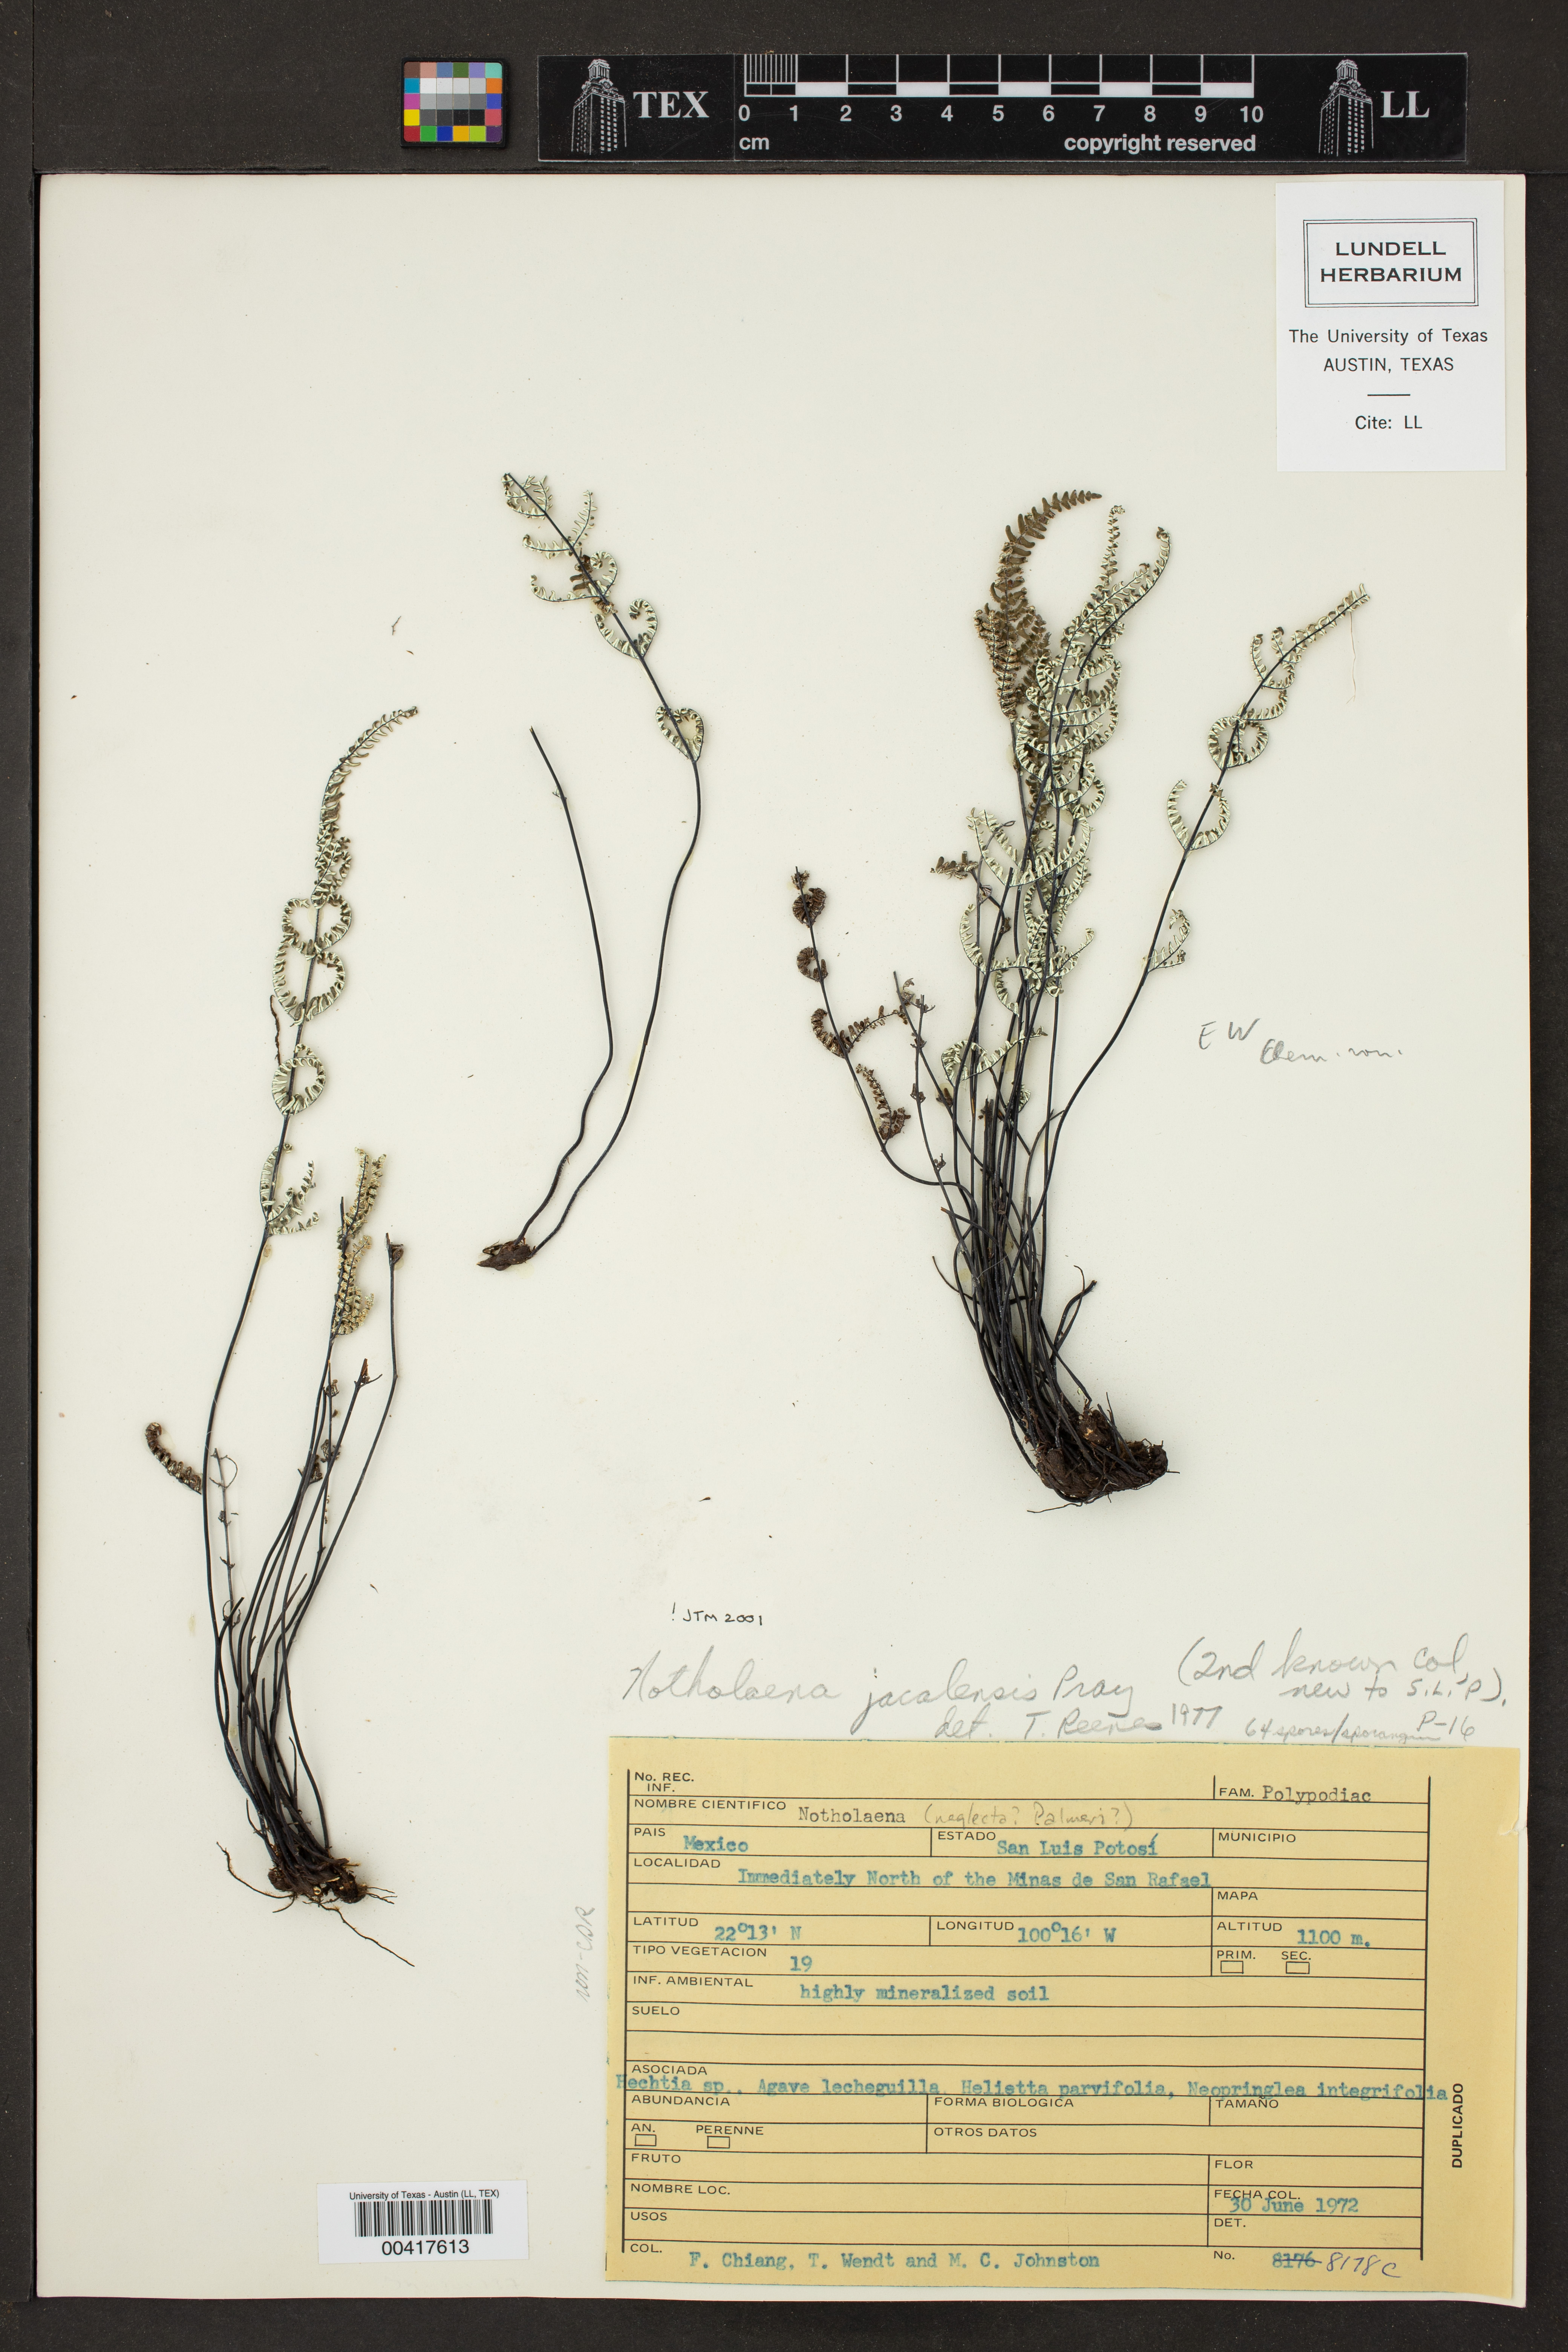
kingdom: Plantae
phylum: Tracheophyta
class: Polypodiopsida
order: Polypodiales
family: Pteridaceae
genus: Notholaena
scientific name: Notholaena jacalensis
